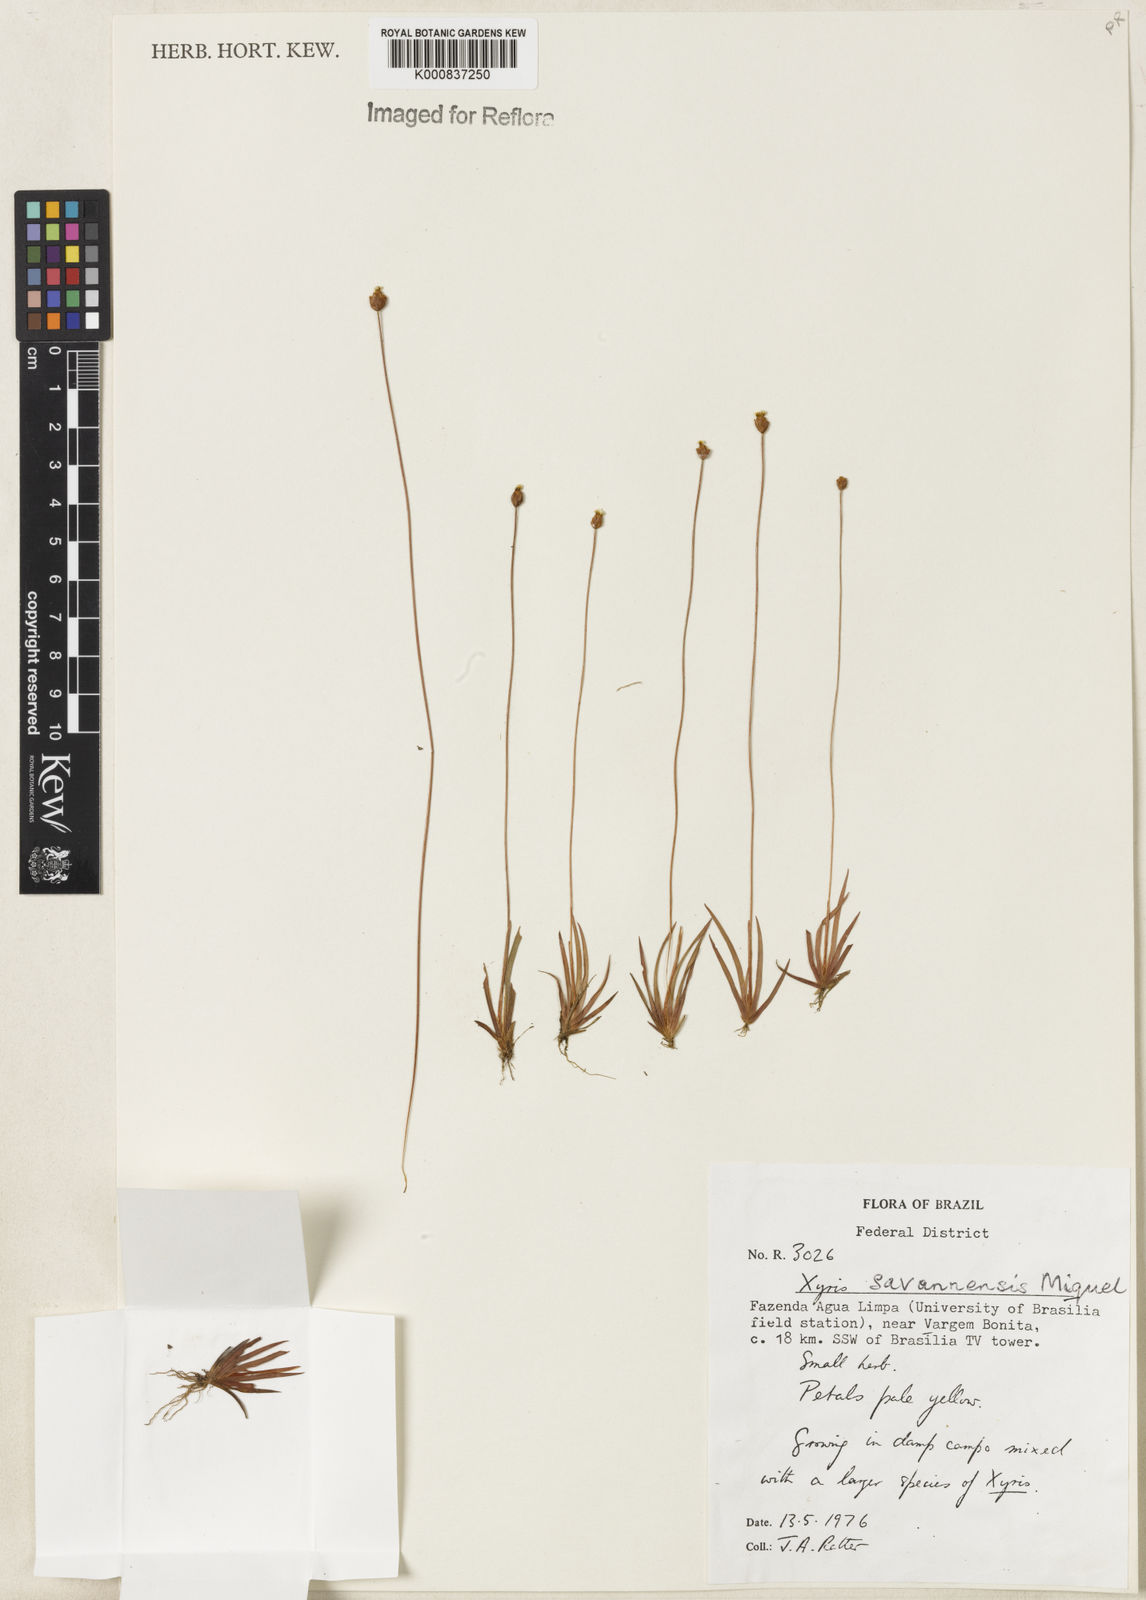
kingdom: Plantae
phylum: Tracheophyta
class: Liliopsida
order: Poales
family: Xyridaceae
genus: Xyris
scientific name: Xyris savanensis
